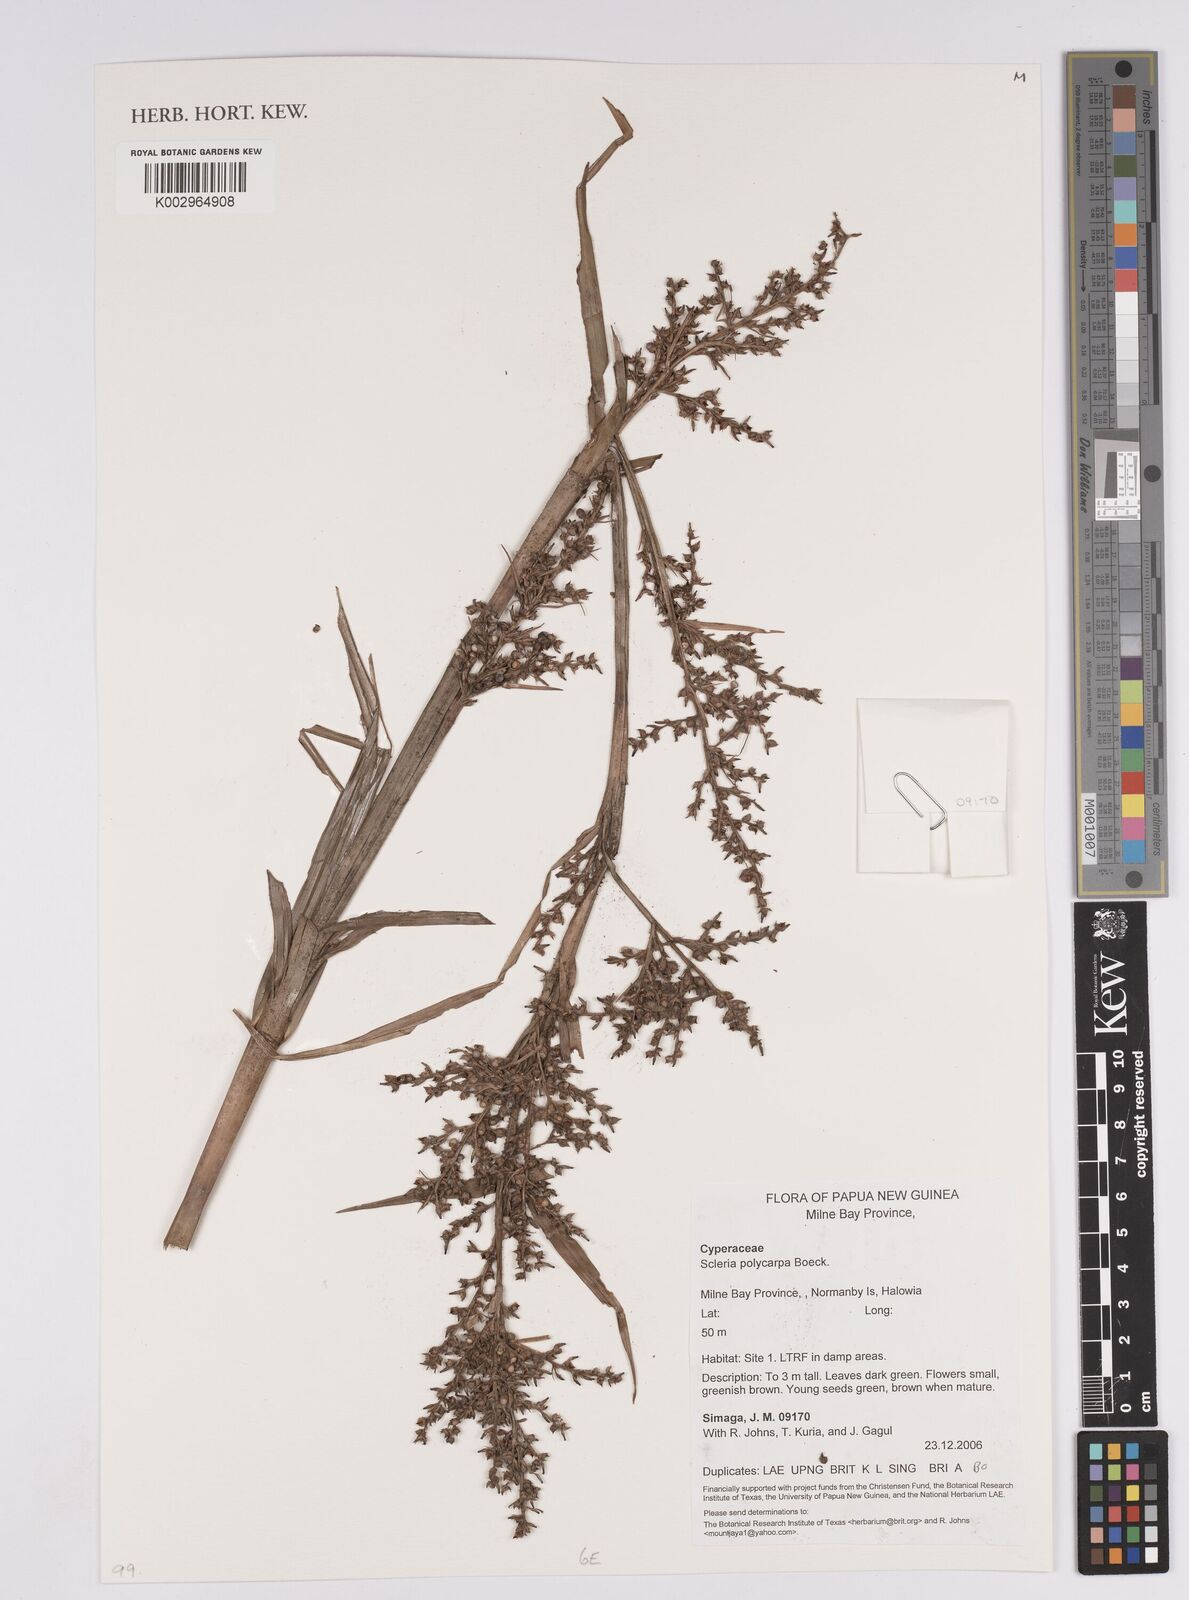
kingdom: Plantae
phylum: Tracheophyta
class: Liliopsida
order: Poales
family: Cyperaceae
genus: Scleria
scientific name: Scleria polycarpa
